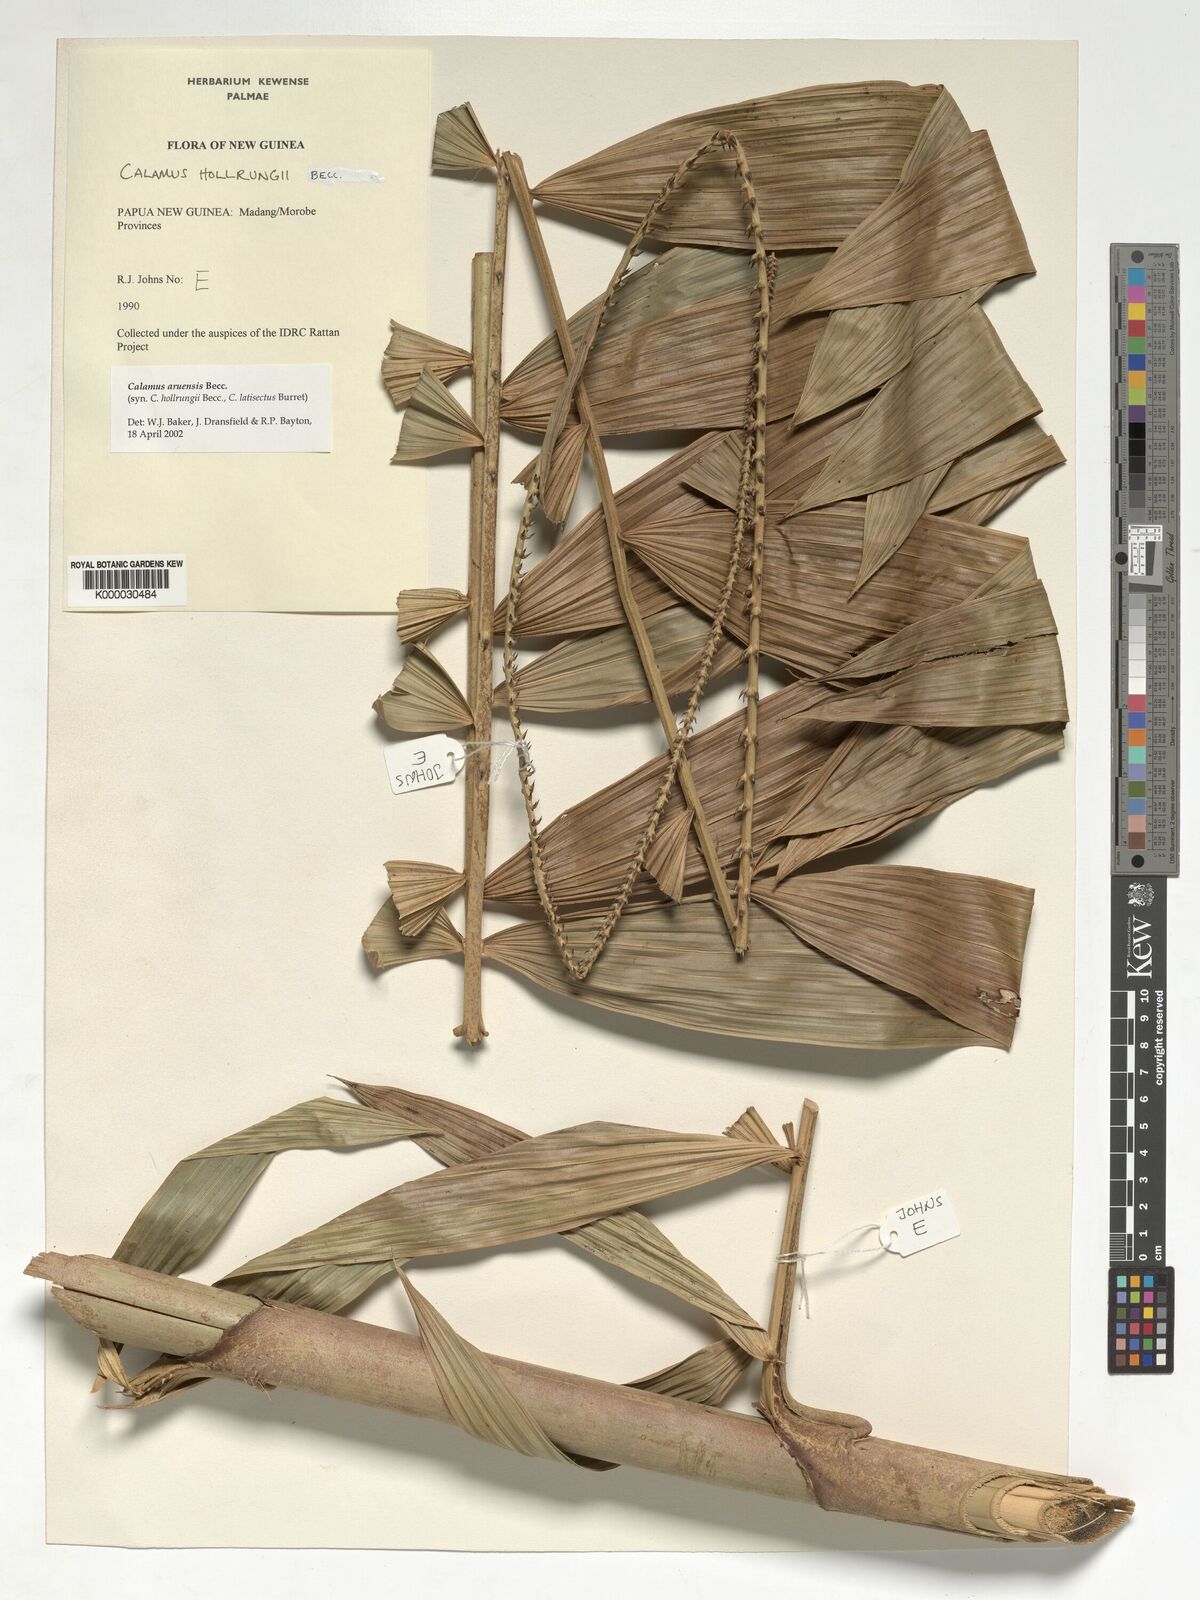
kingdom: Plantae
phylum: Tracheophyta
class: Liliopsida
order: Arecales
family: Arecaceae
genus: Calamus
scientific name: Calamus aruensis
